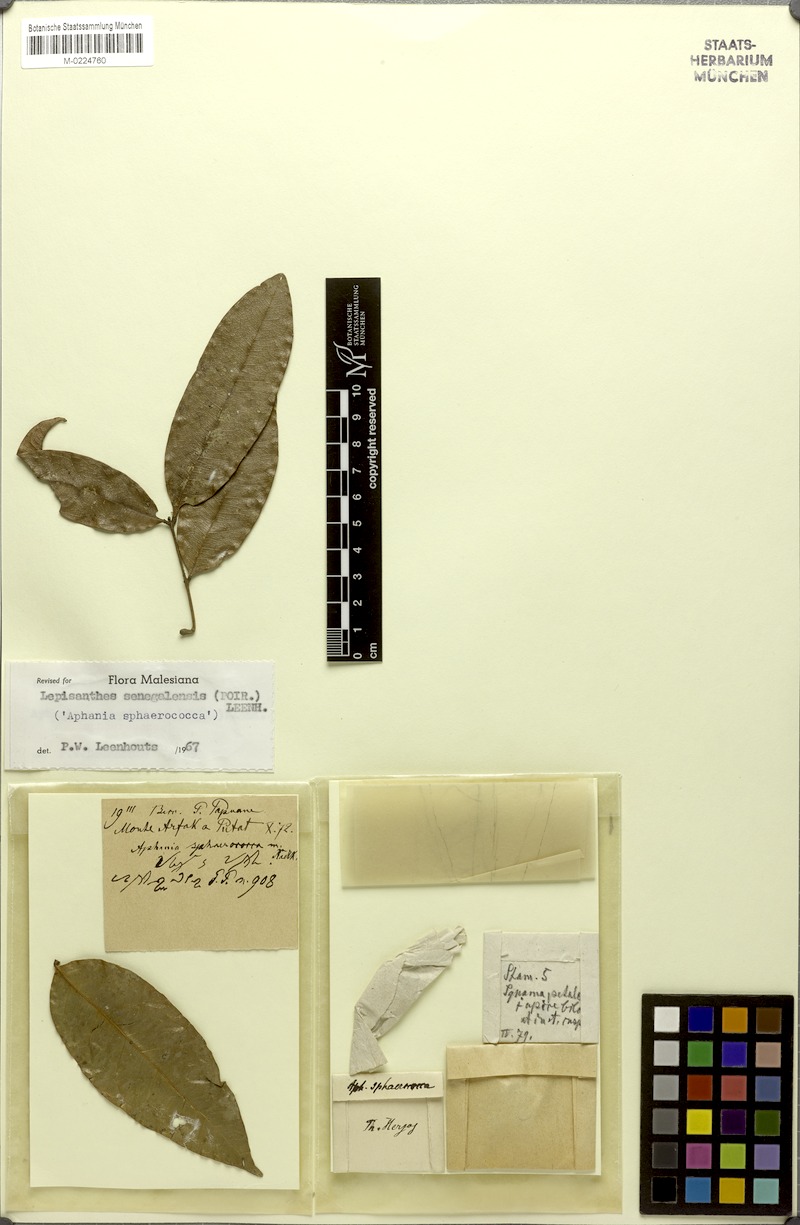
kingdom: Plantae
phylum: Tracheophyta
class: Magnoliopsida
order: Sapindales
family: Sapindaceae
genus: Lepisanthes
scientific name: Lepisanthes senegalensis
